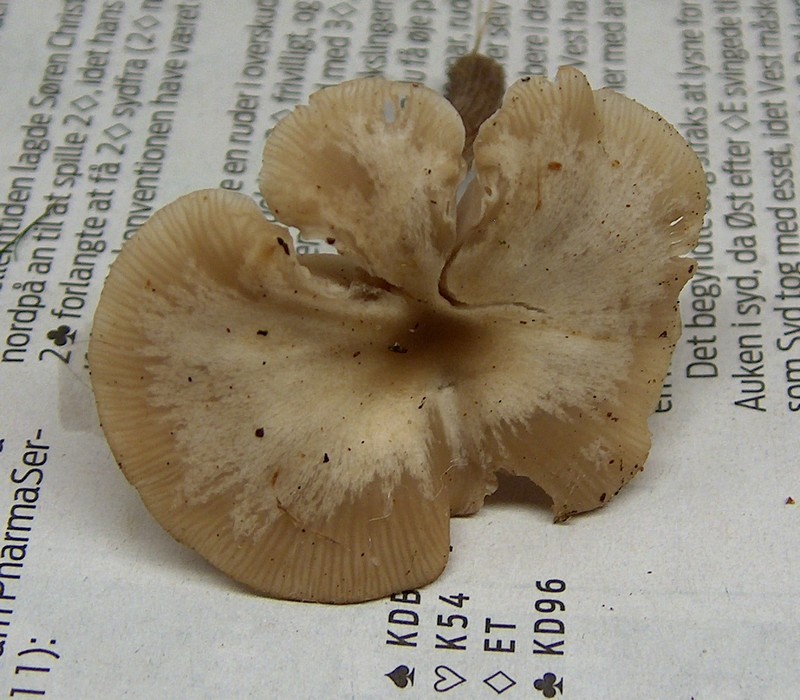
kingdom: Fungi
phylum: Basidiomycota
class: Agaricomycetes
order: Agaricales
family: Tricholomataceae
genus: Clitocybe
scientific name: Clitocybe metachroa
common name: grå tragthat
